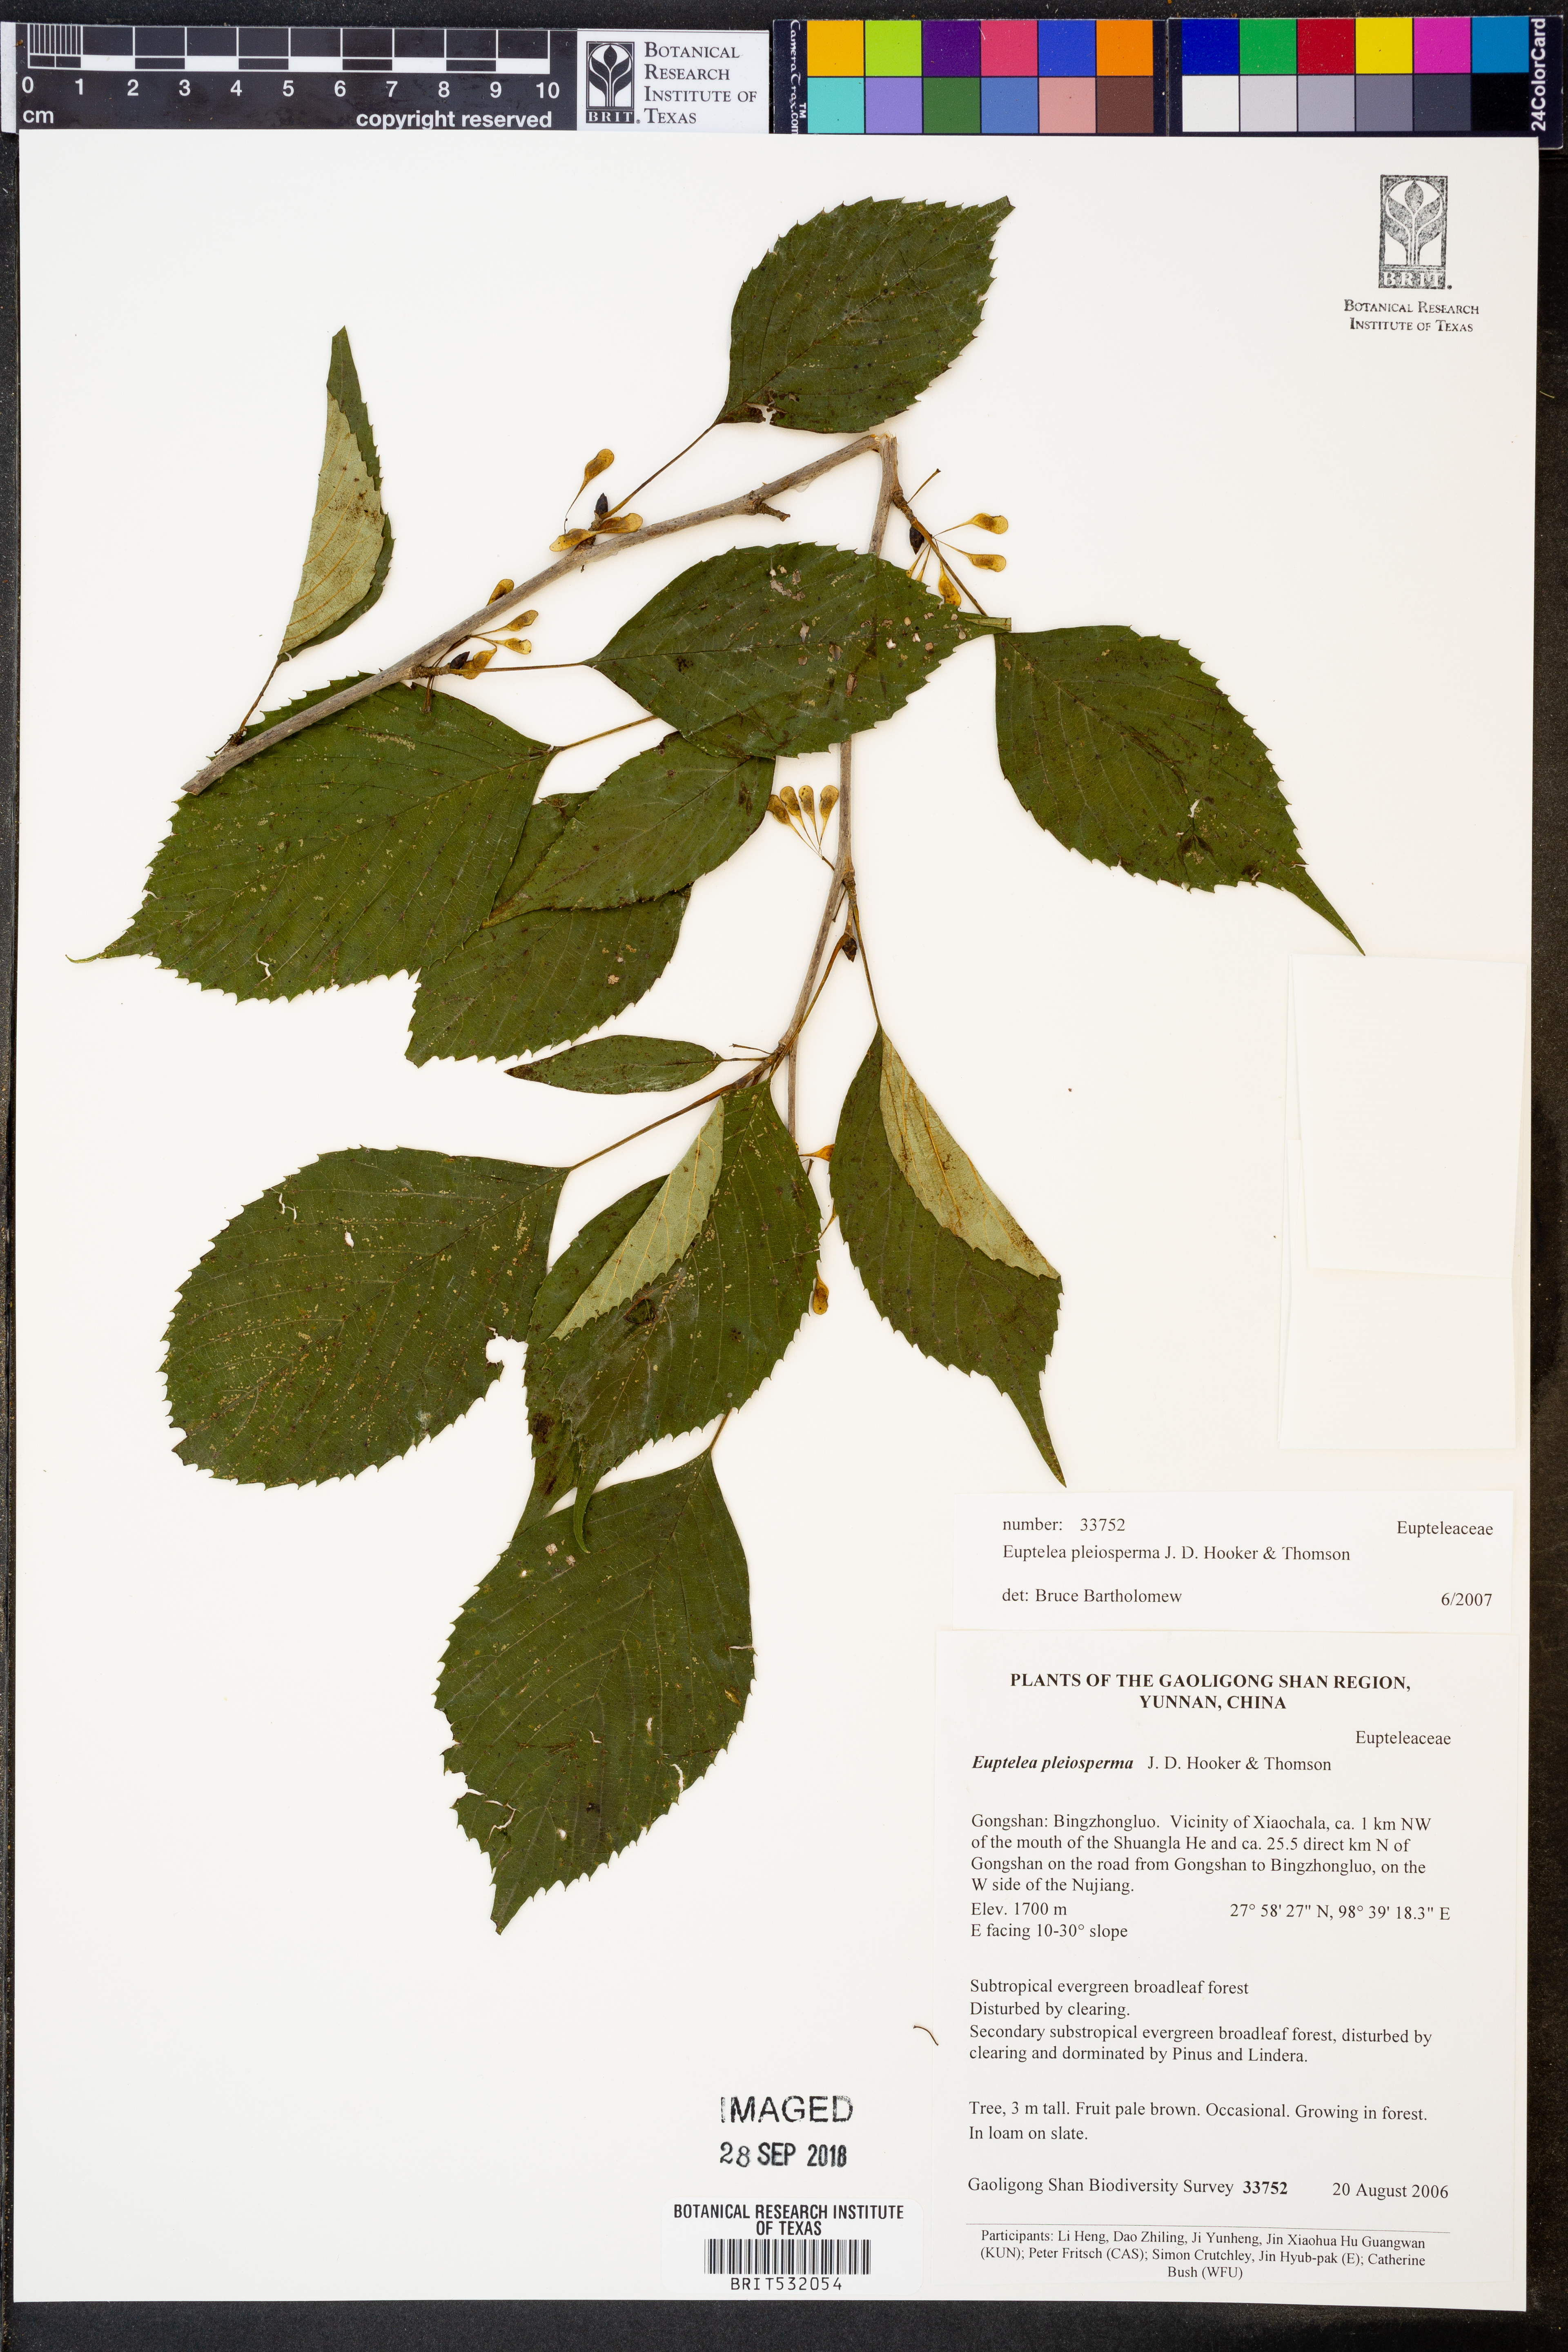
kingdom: Plantae
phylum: Tracheophyta
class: Magnoliopsida
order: Ranunculales
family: Eupteleaceae
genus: Euptelea
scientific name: Euptelea pleiosperma
